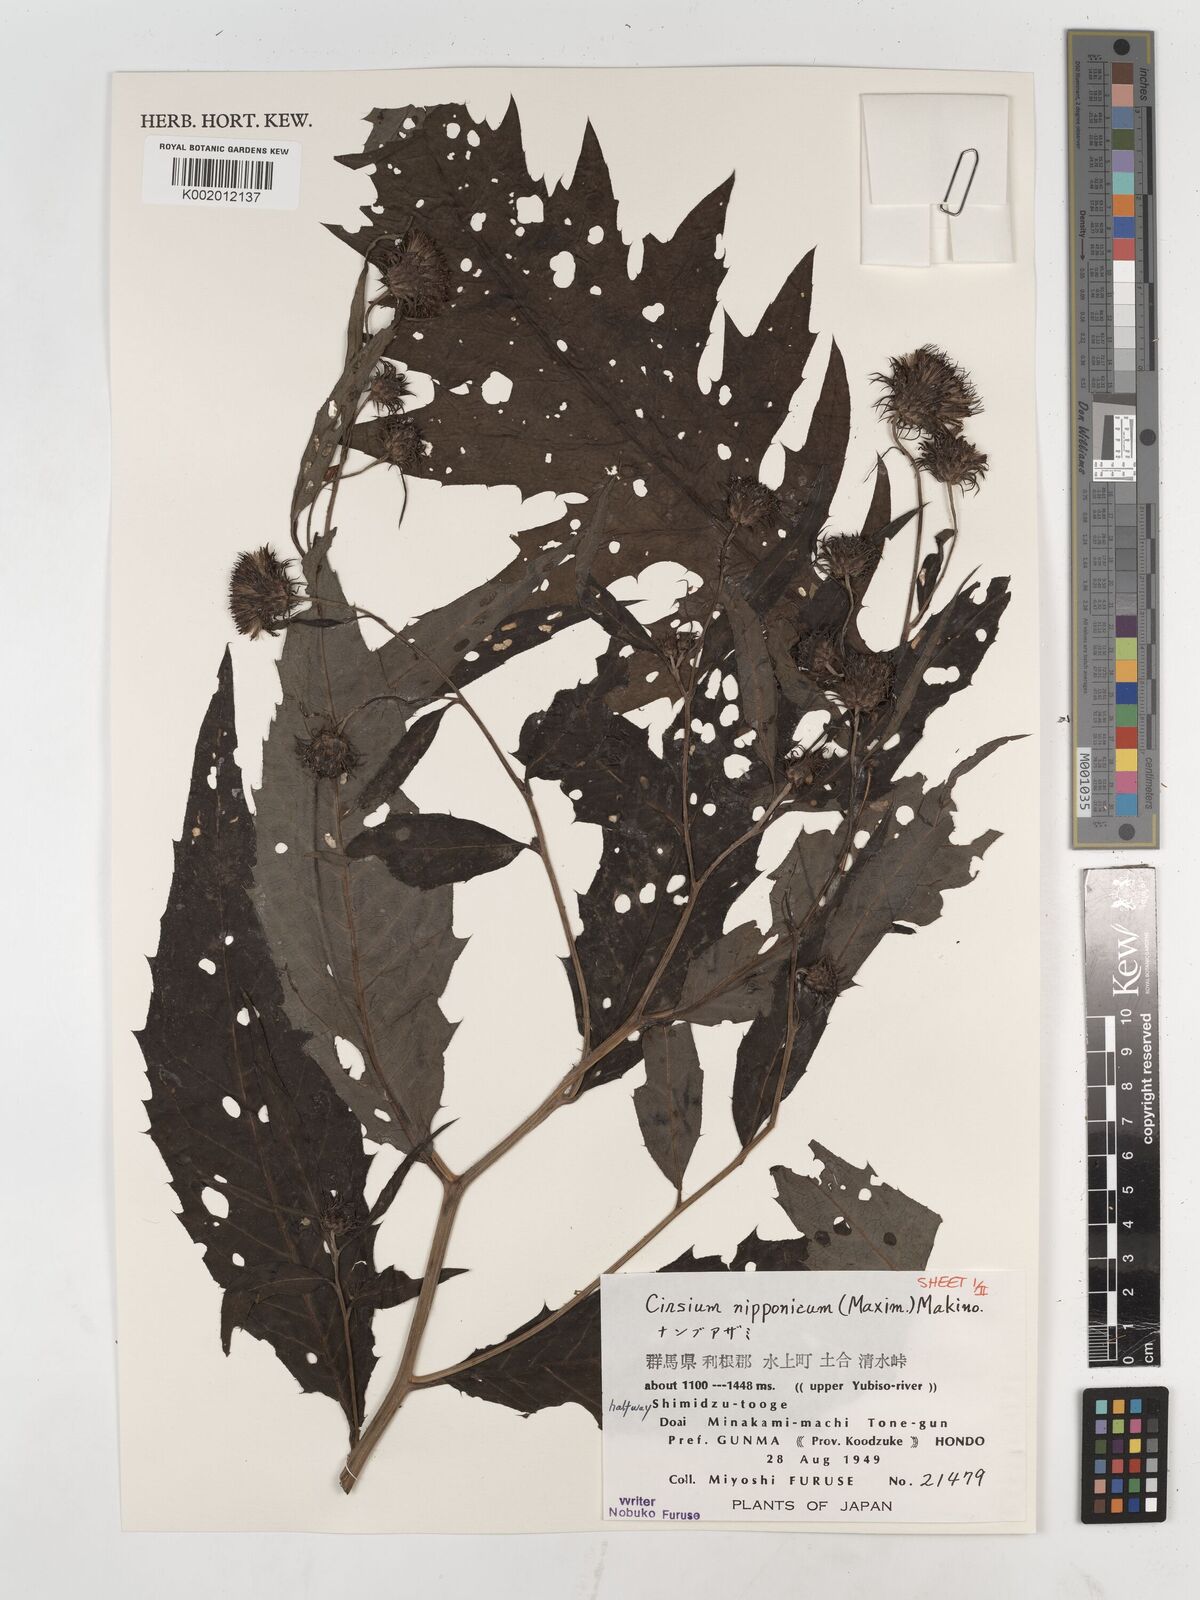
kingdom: Plantae
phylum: Tracheophyta
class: Magnoliopsida
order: Asterales
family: Asteraceae
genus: Cirsium
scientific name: Cirsium nipponicum
